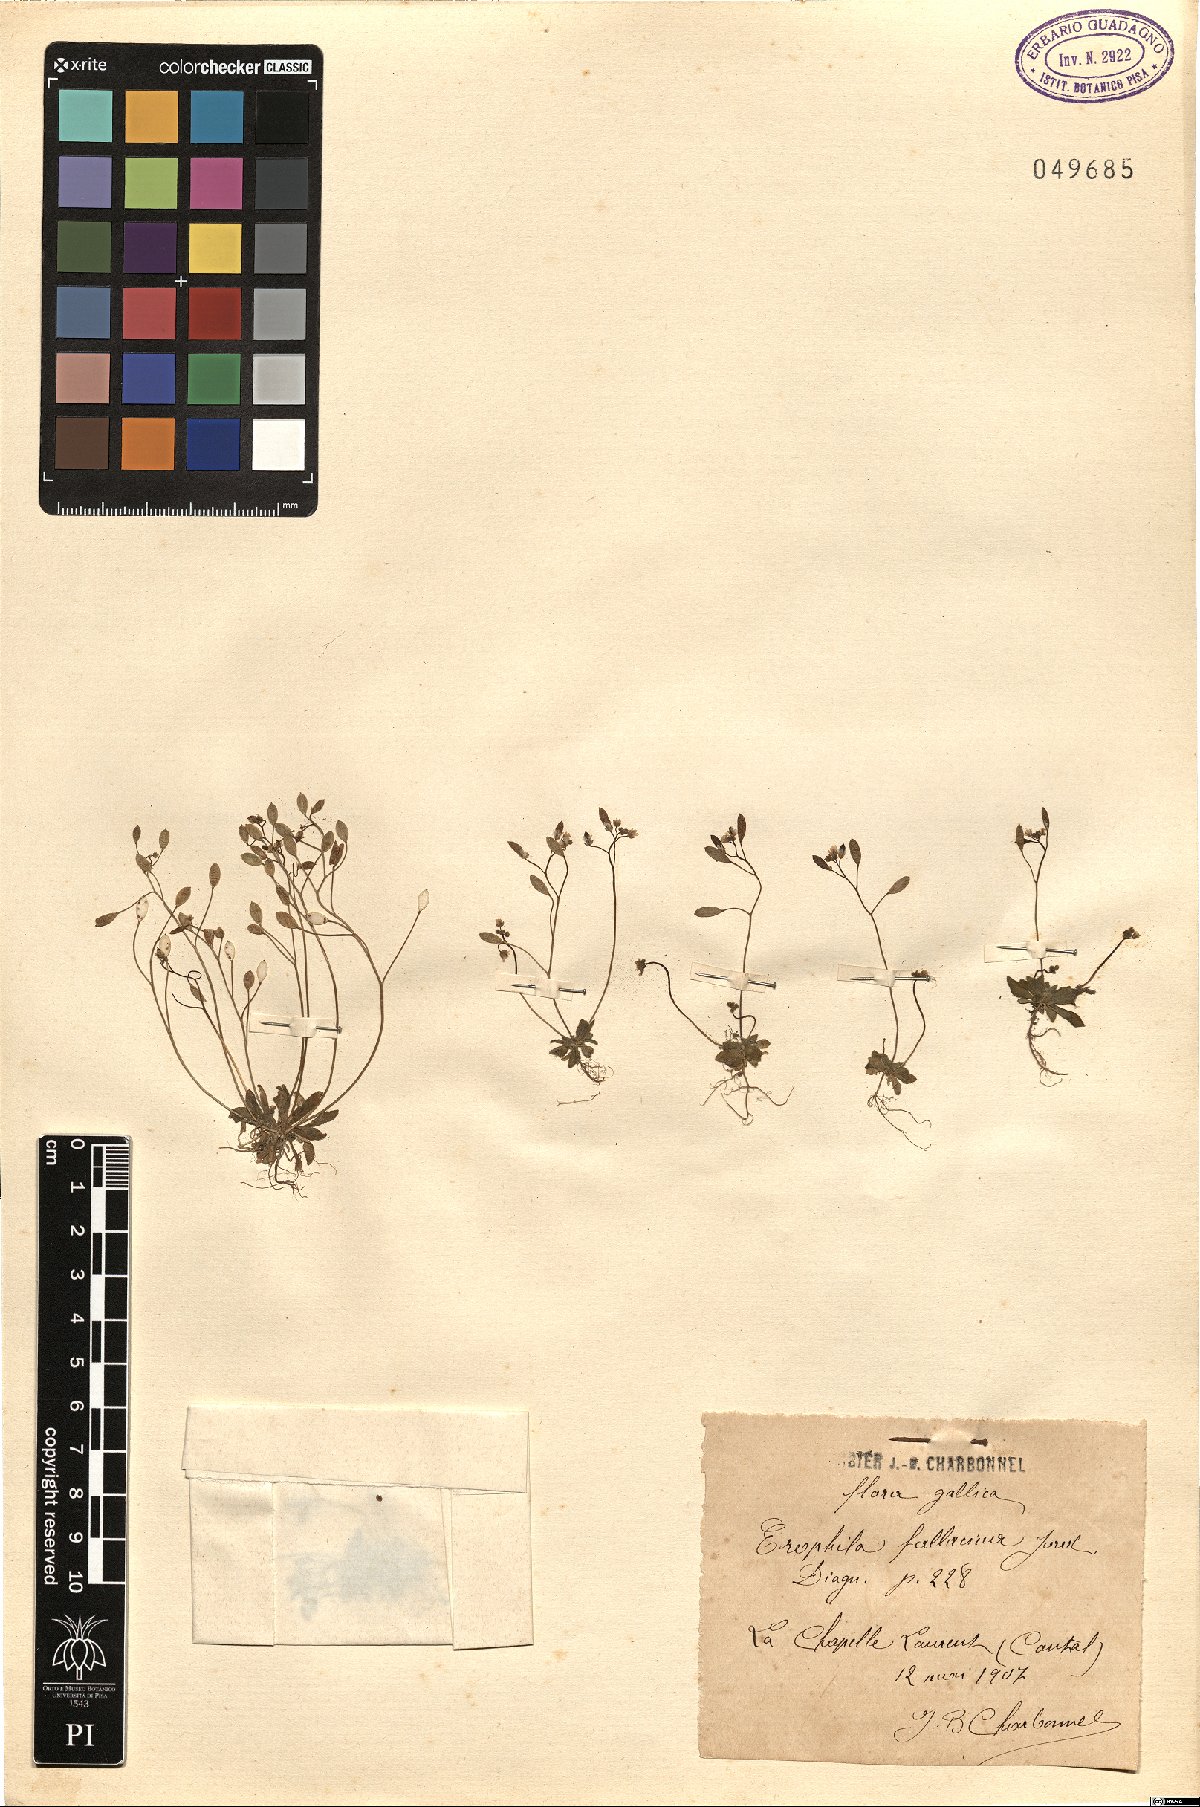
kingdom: Plantae
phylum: Tracheophyta
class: Magnoliopsida
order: Brassicales
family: Brassicaceae
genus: Draba
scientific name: Draba verna
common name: Spring draba
